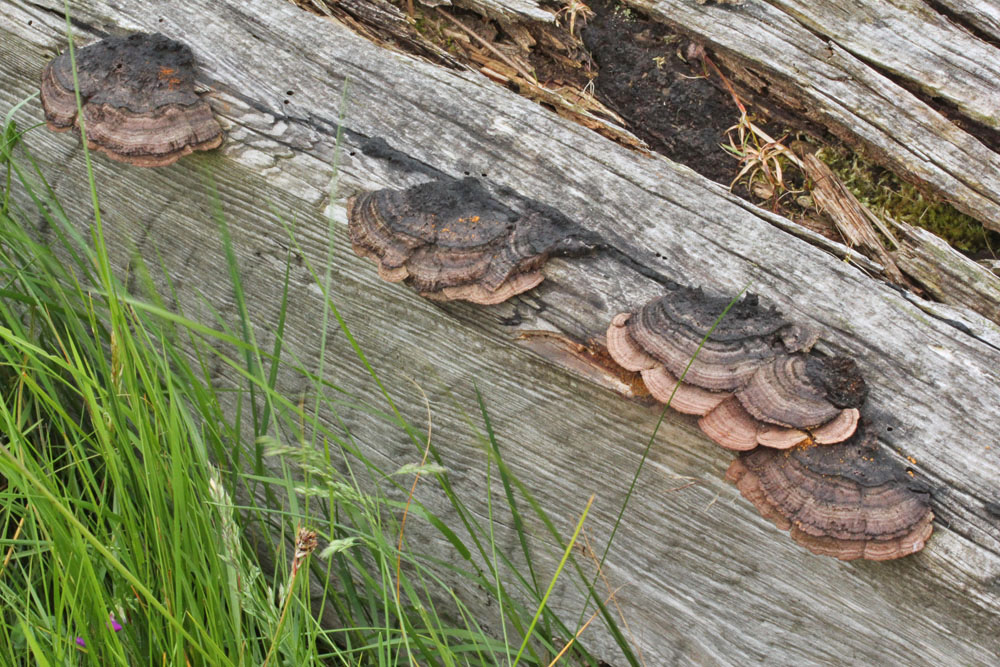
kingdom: Fungi
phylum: Basidiomycota
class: Agaricomycetes
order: Gloeophyllales
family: Gloeophyllaceae
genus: Gloeophyllum
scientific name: Gloeophyllum sepiarium
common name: fyrre-korkhat
